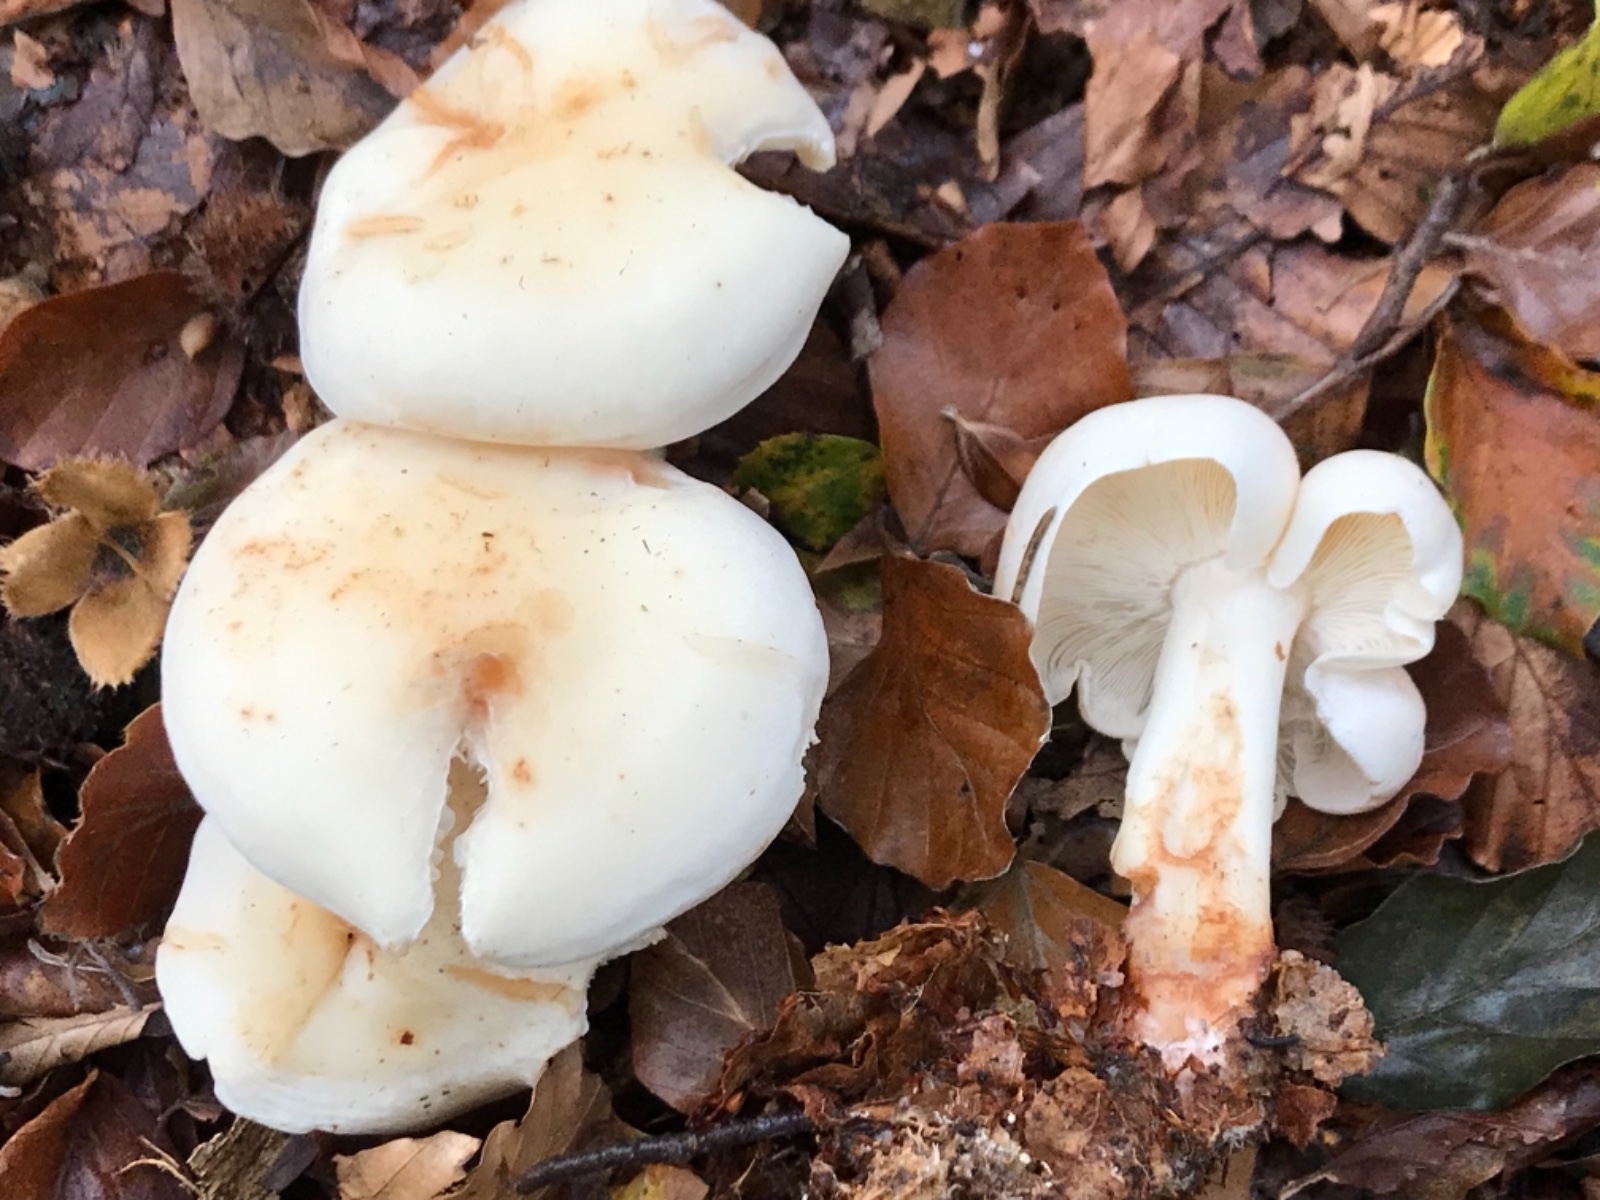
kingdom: Fungi
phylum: Basidiomycota
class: Agaricomycetes
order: Agaricales
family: Omphalotaceae
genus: Rhodocollybia
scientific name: Rhodocollybia maculata
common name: plettet fladhat
